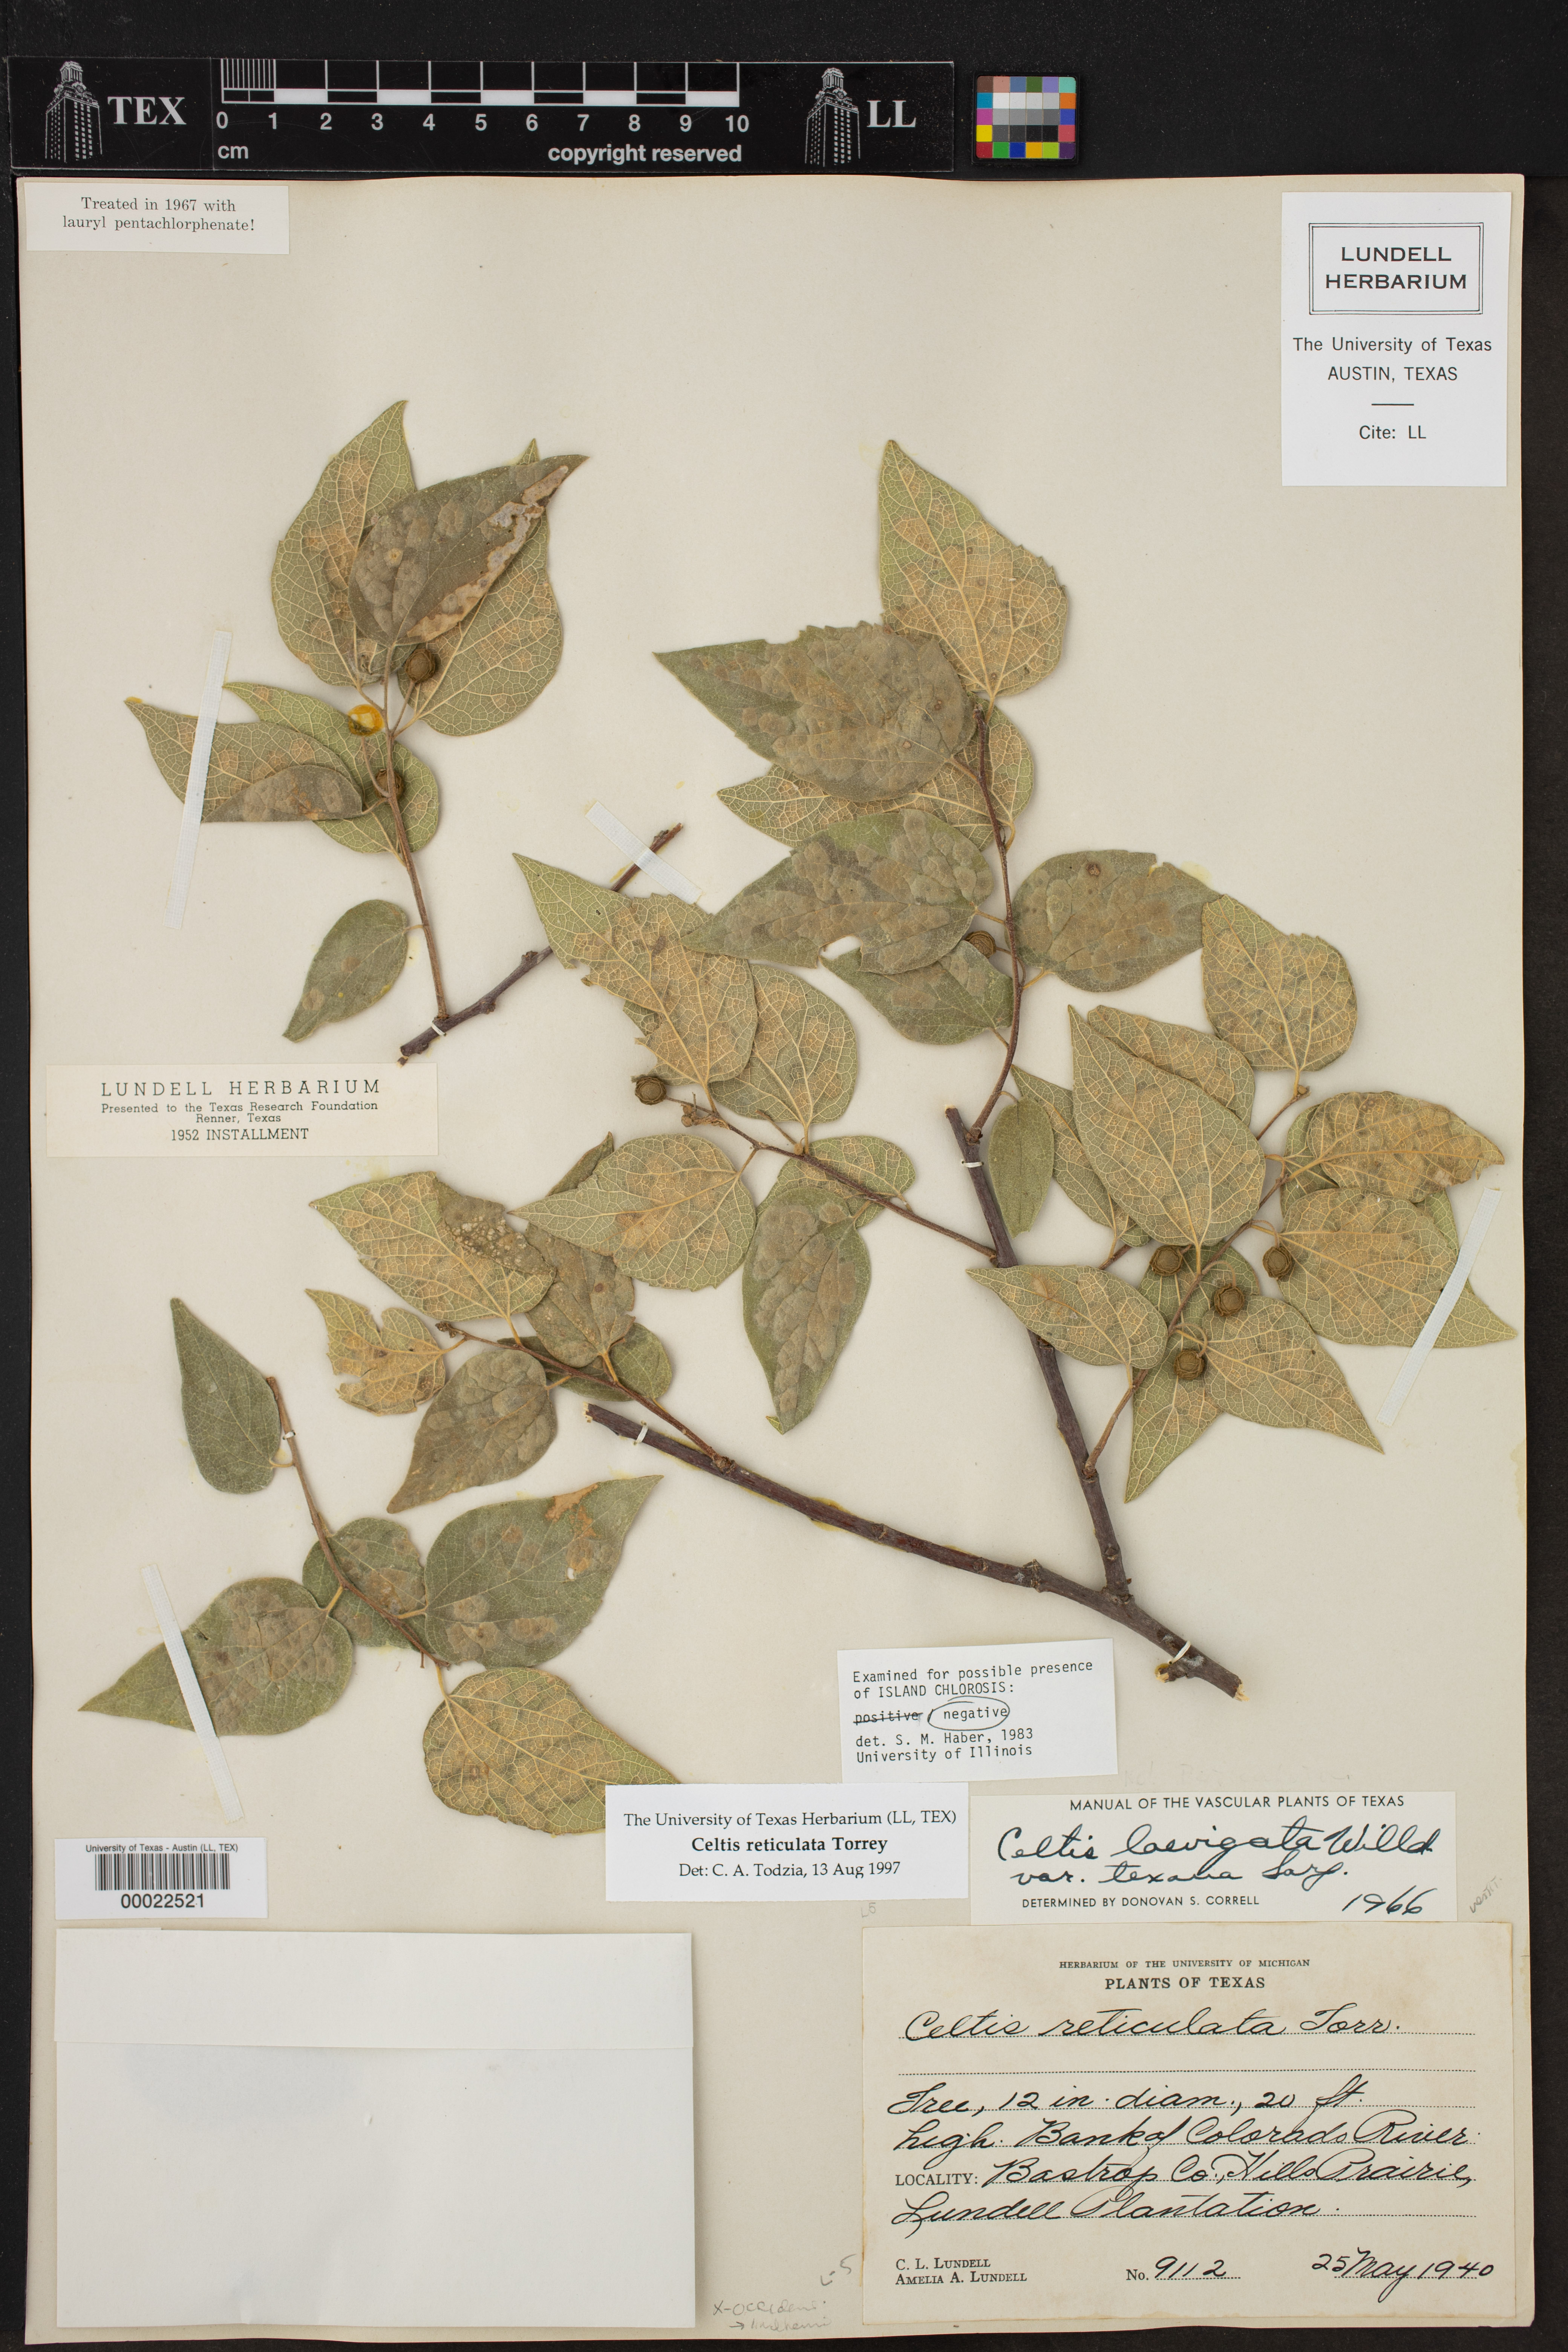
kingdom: Plantae
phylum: Tracheophyta
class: Magnoliopsida
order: Rosales
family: Cannabaceae
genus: Celtis
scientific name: Celtis reticulata
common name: Netleaf hackberry
